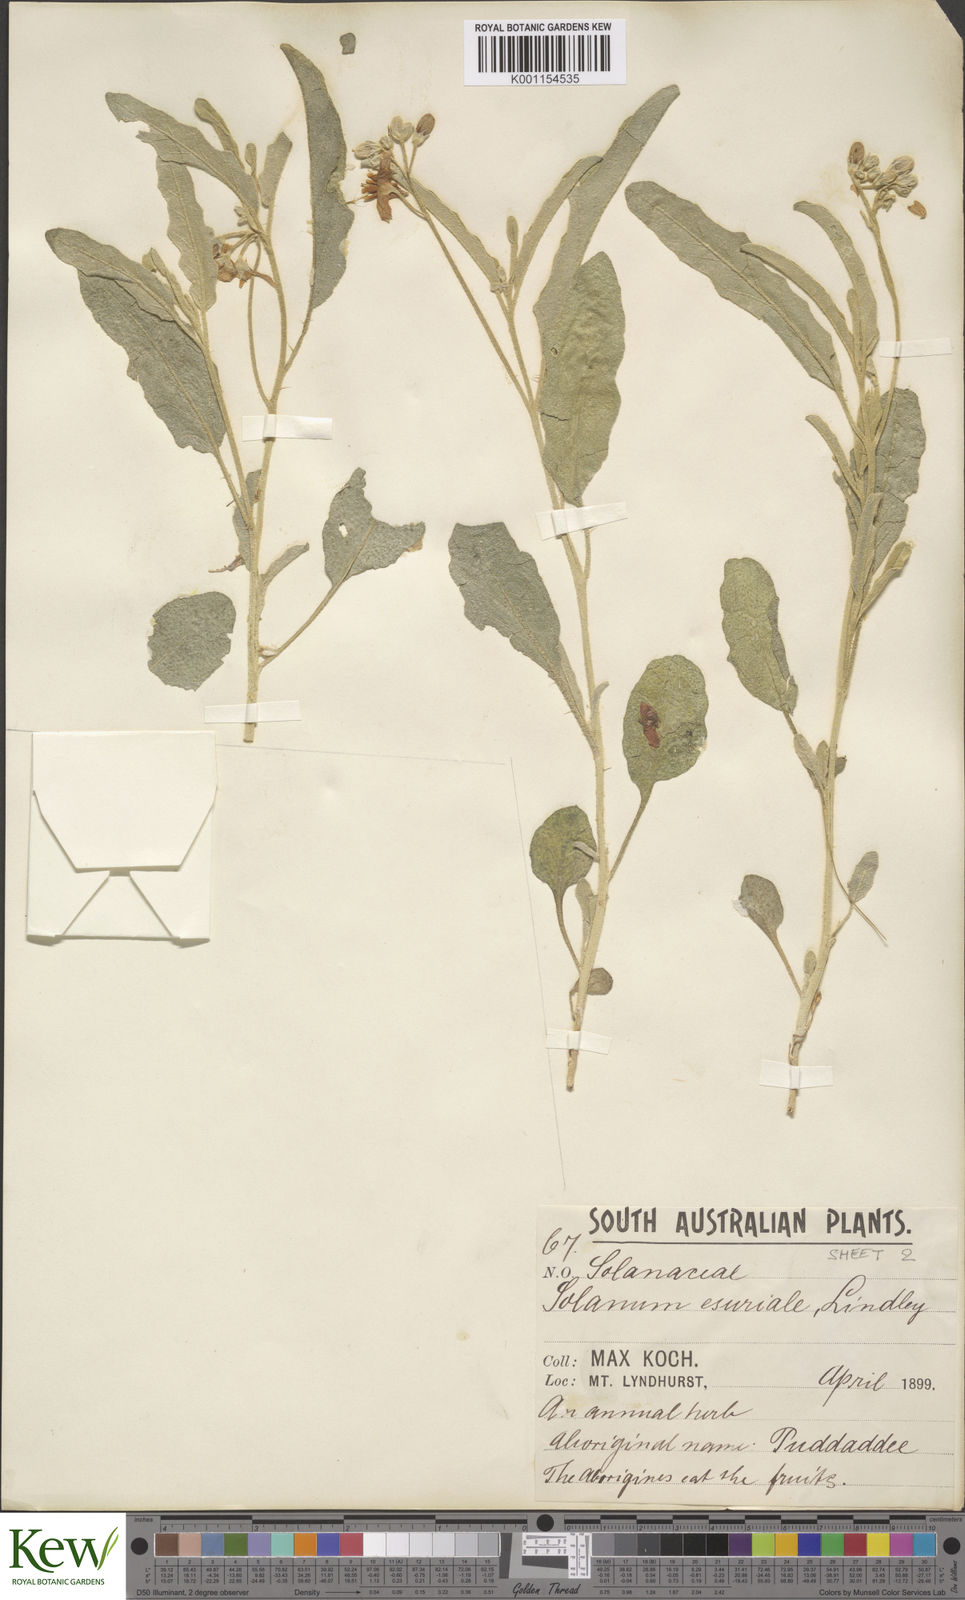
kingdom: Plantae
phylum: Tracheophyta
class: Magnoliopsida
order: Solanales
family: Solanaceae
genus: Solanum
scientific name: Solanum esuriale
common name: Wild tomato
